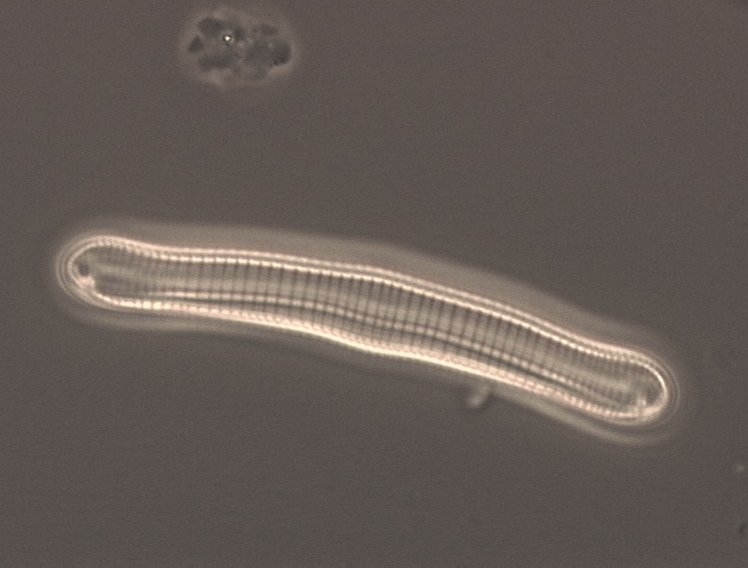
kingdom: Chromista
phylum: Ochrophyta
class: Bacillariophyceae
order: Eunotiales
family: Eunotiaceae
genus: Eunotia
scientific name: Eunotia formica
